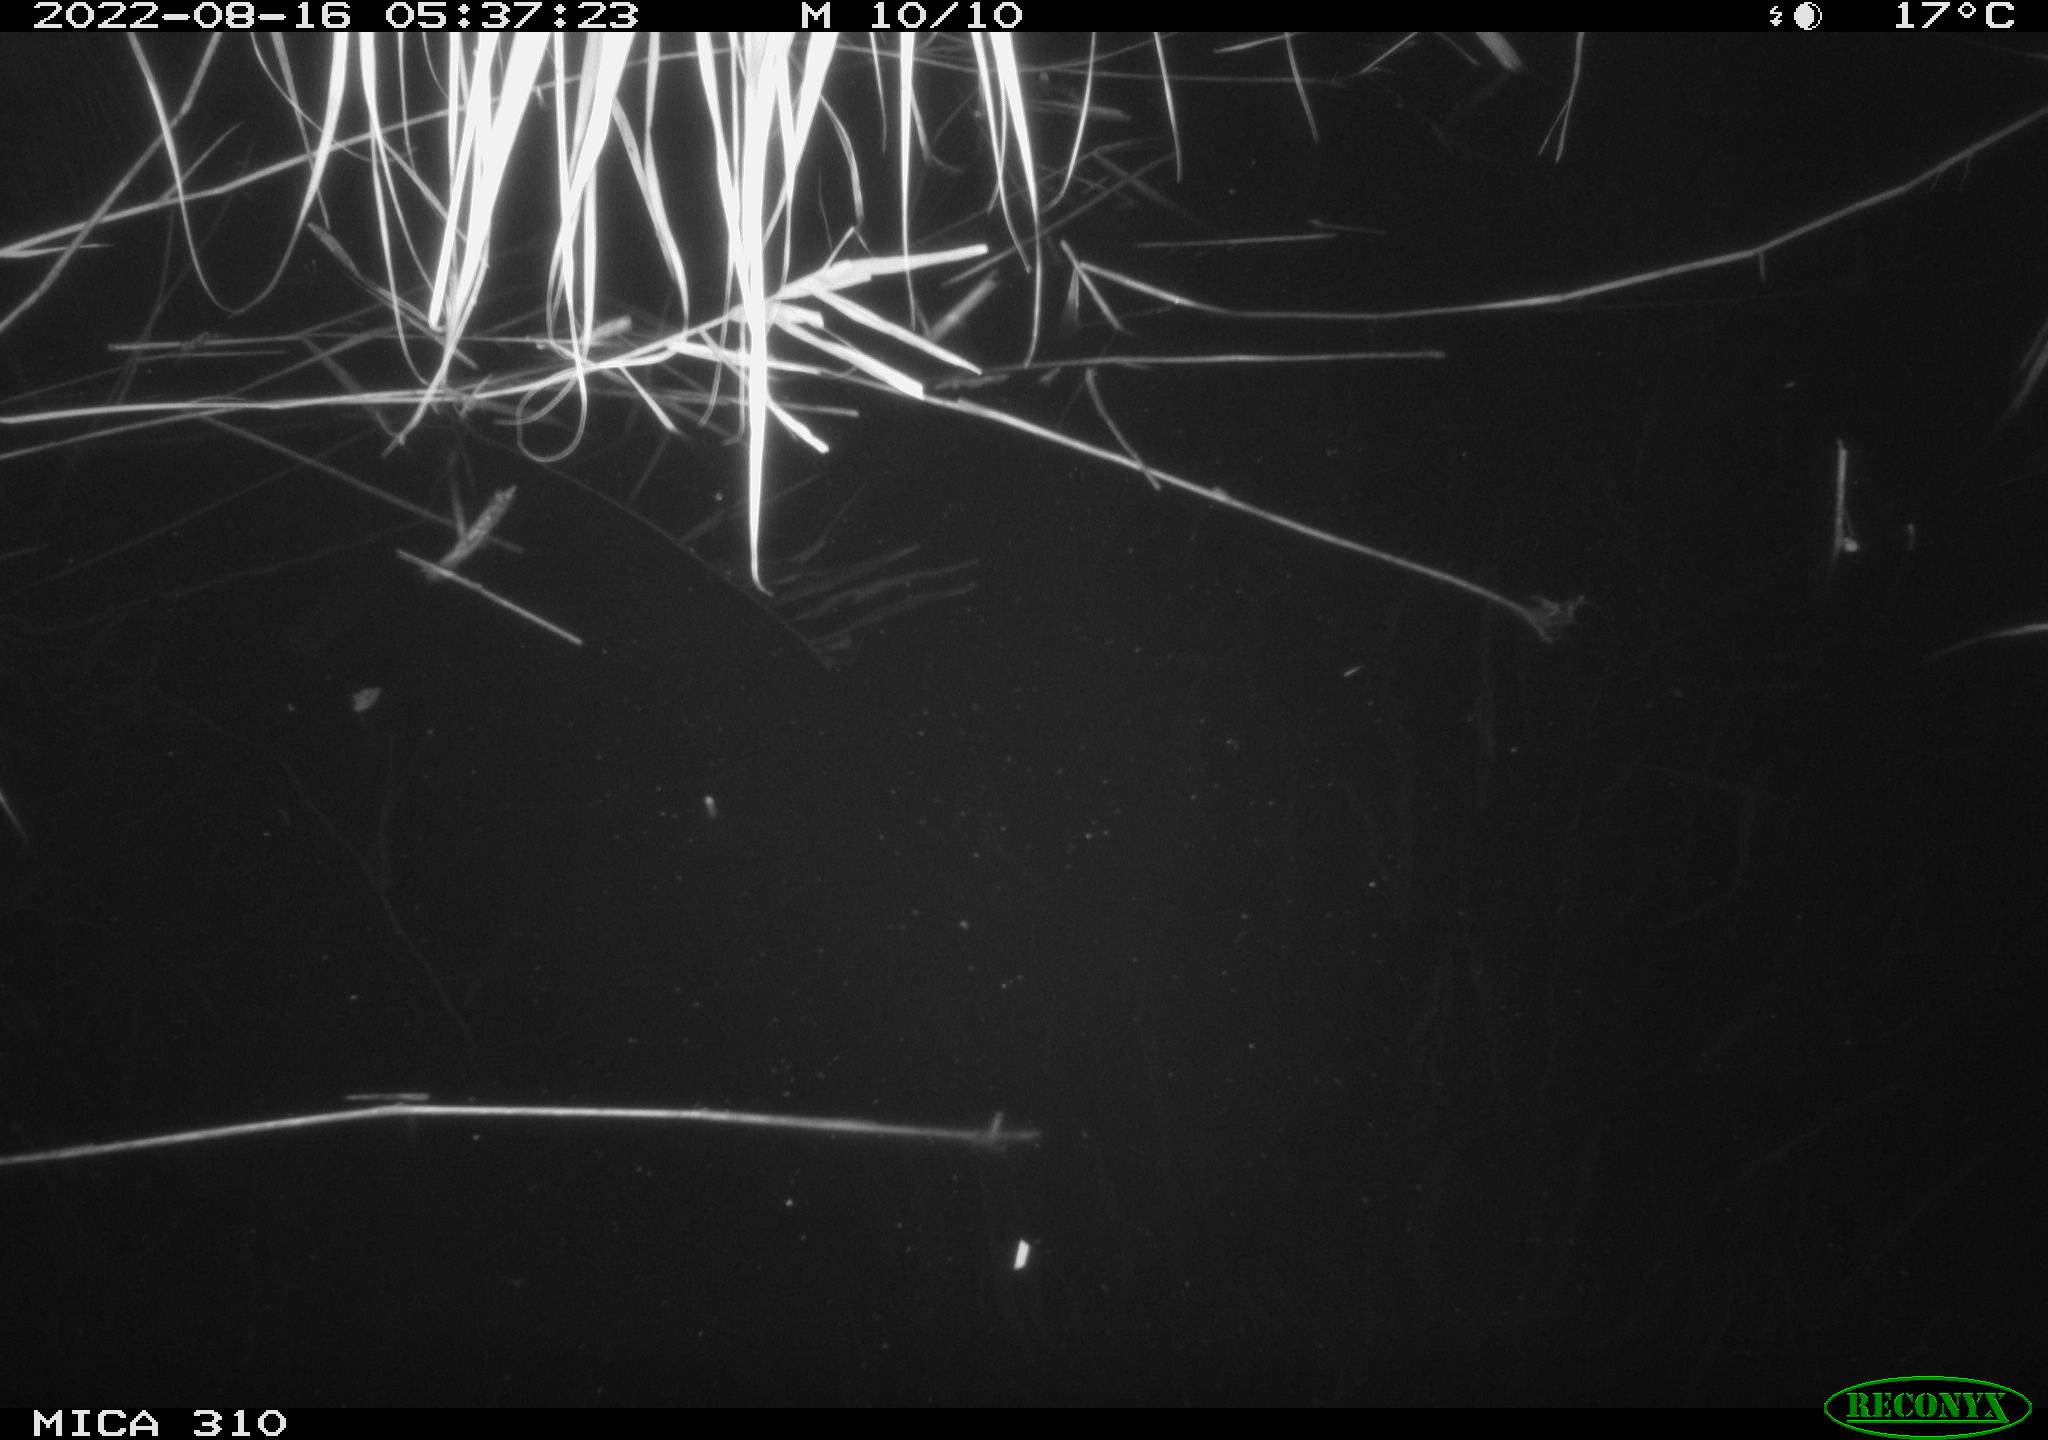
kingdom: Animalia
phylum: Chordata
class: Aves
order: Anseriformes
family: Anatidae
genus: Anas
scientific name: Anas platyrhynchos
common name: Mallard
